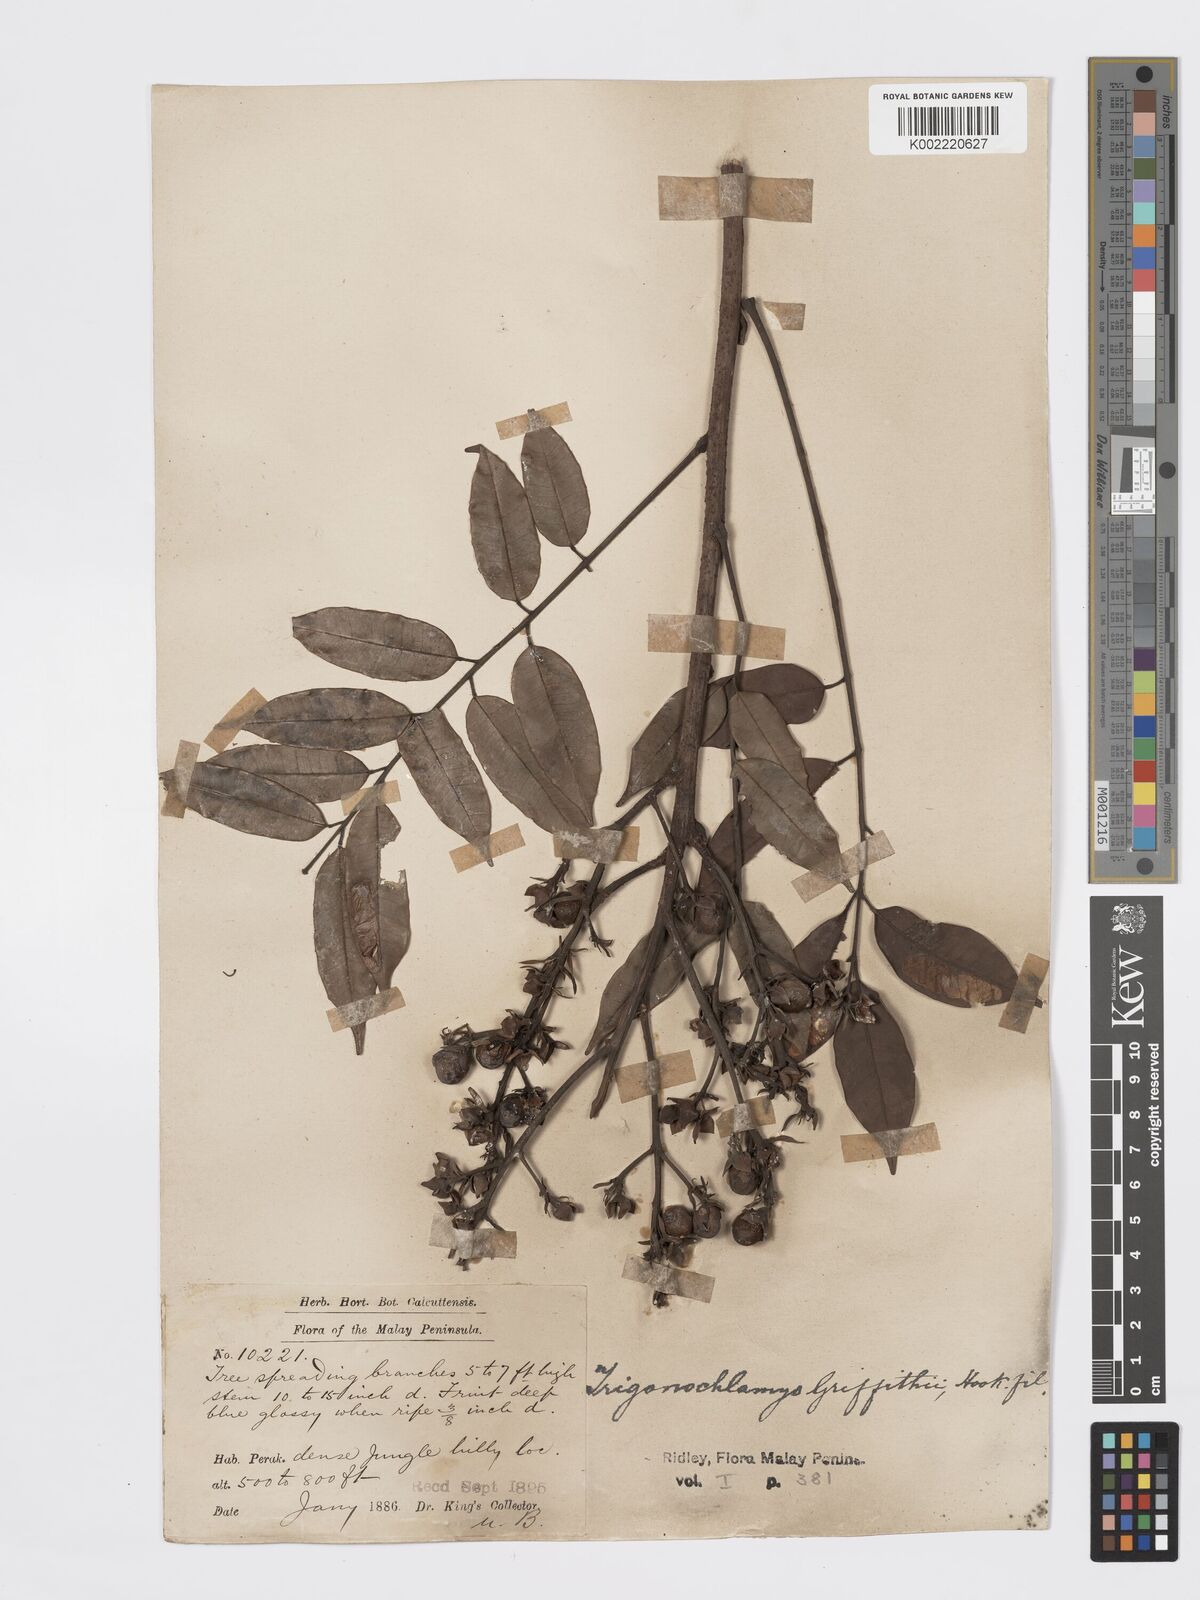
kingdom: Plantae
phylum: Tracheophyta
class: Magnoliopsida
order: Sapindales
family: Burseraceae
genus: Santiria
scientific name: Santiria griffithii
